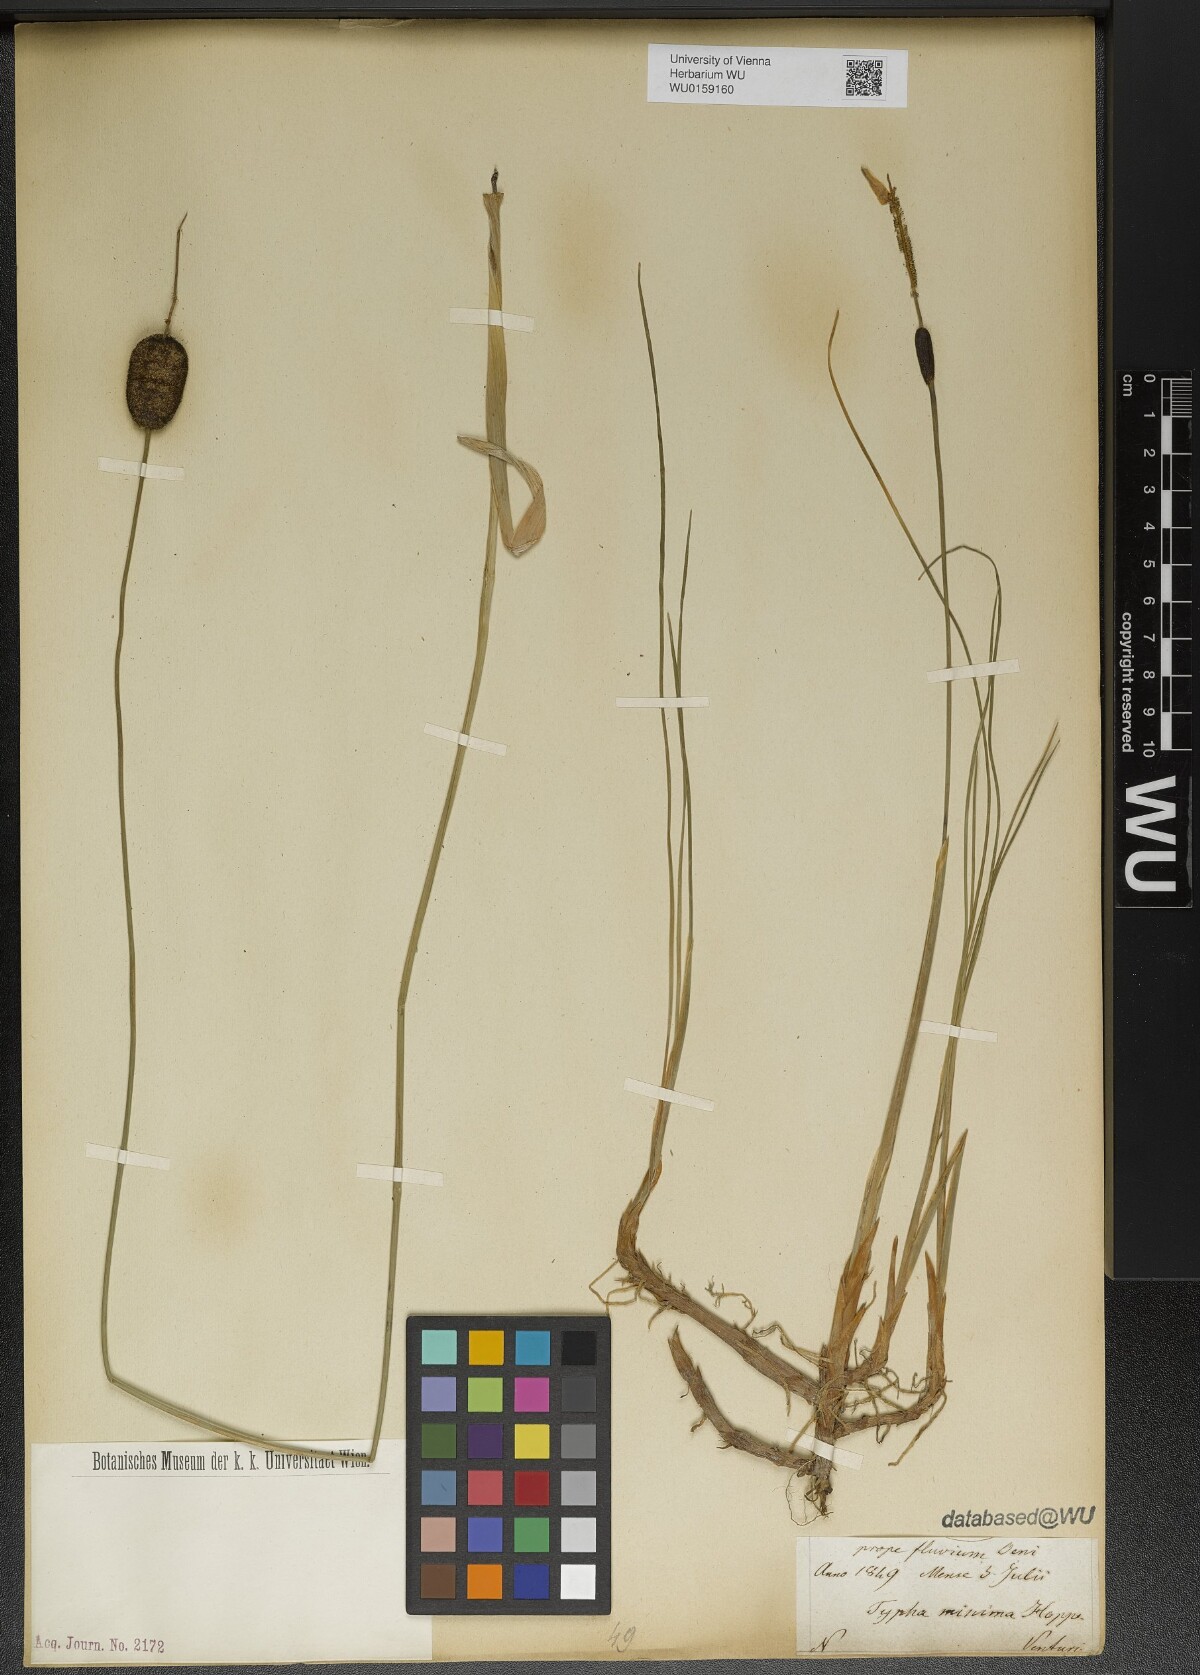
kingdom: Plantae
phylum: Tracheophyta
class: Liliopsida
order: Poales
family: Typhaceae
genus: Typha
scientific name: Typha minima
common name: Dwarf bulrush
